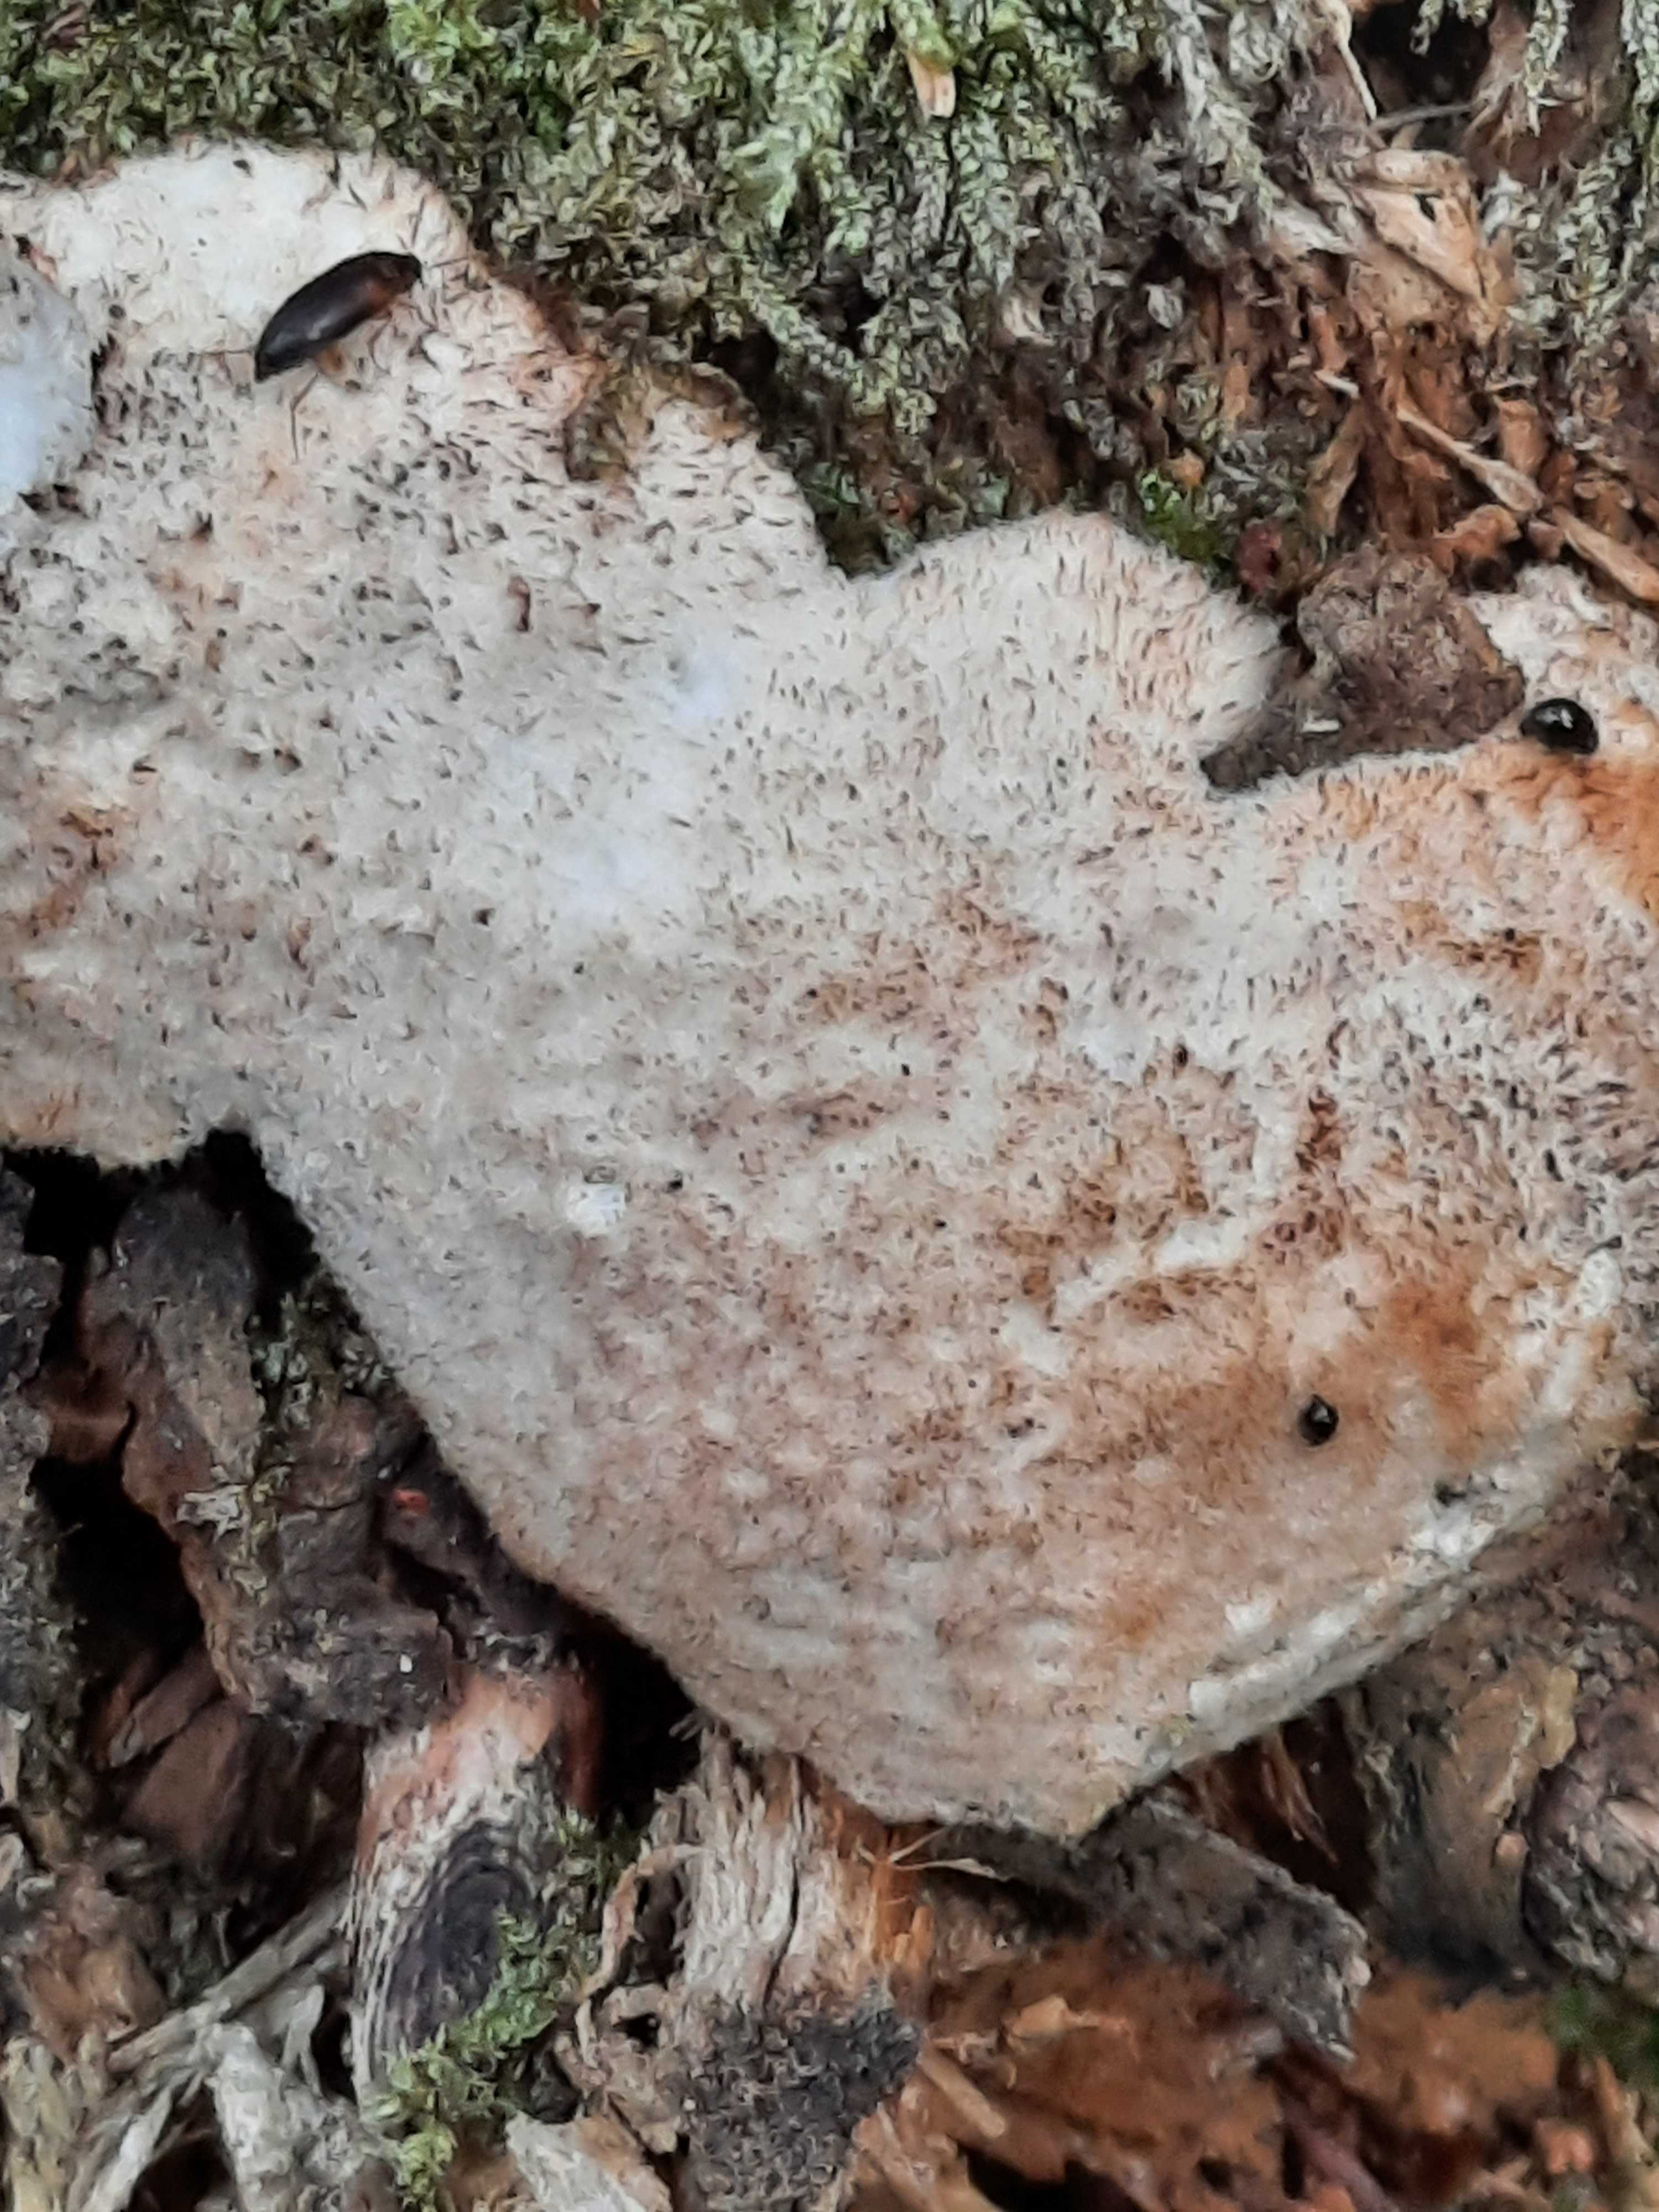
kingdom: Fungi
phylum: Basidiomycota
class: Agaricomycetes
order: Polyporales
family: Dacryobolaceae
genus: Postia
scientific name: Postia ptychogaster
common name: støvende kødporesvamp
